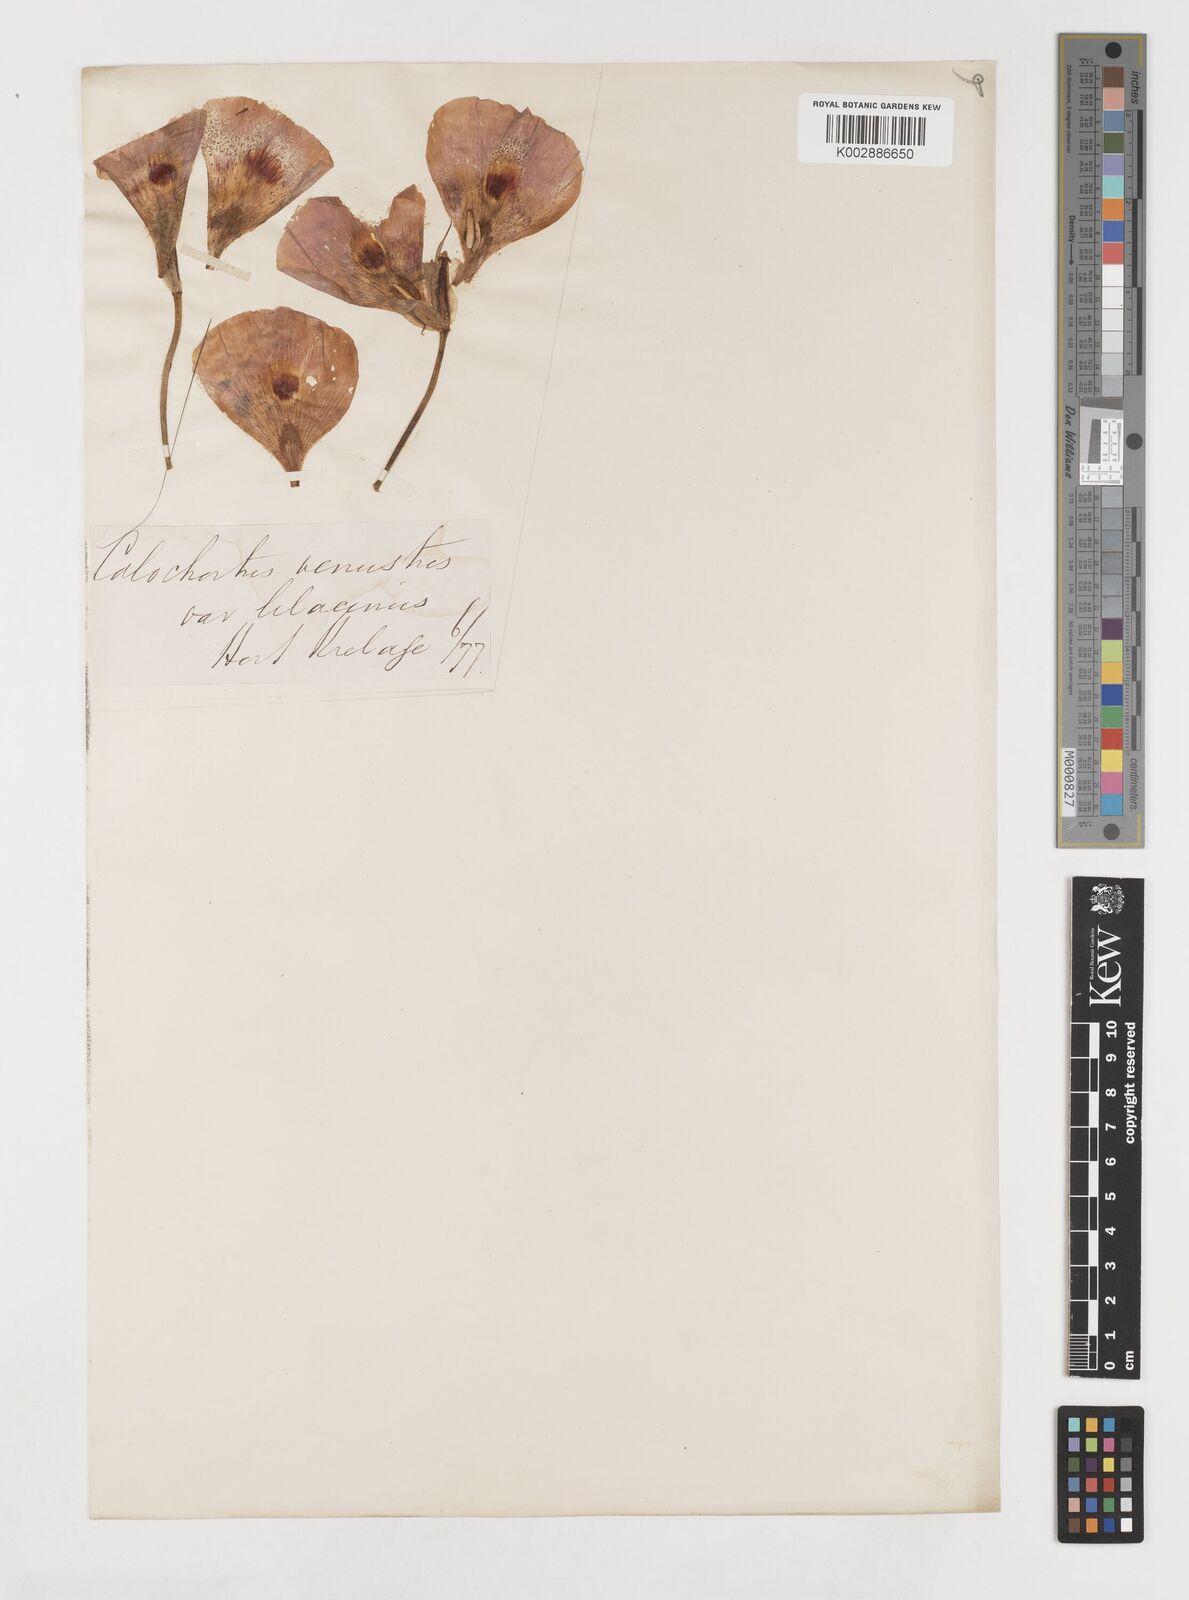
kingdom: Plantae
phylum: Tracheophyta
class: Liliopsida
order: Liliales
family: Liliaceae
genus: Calochortus
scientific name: Calochortus superbus
